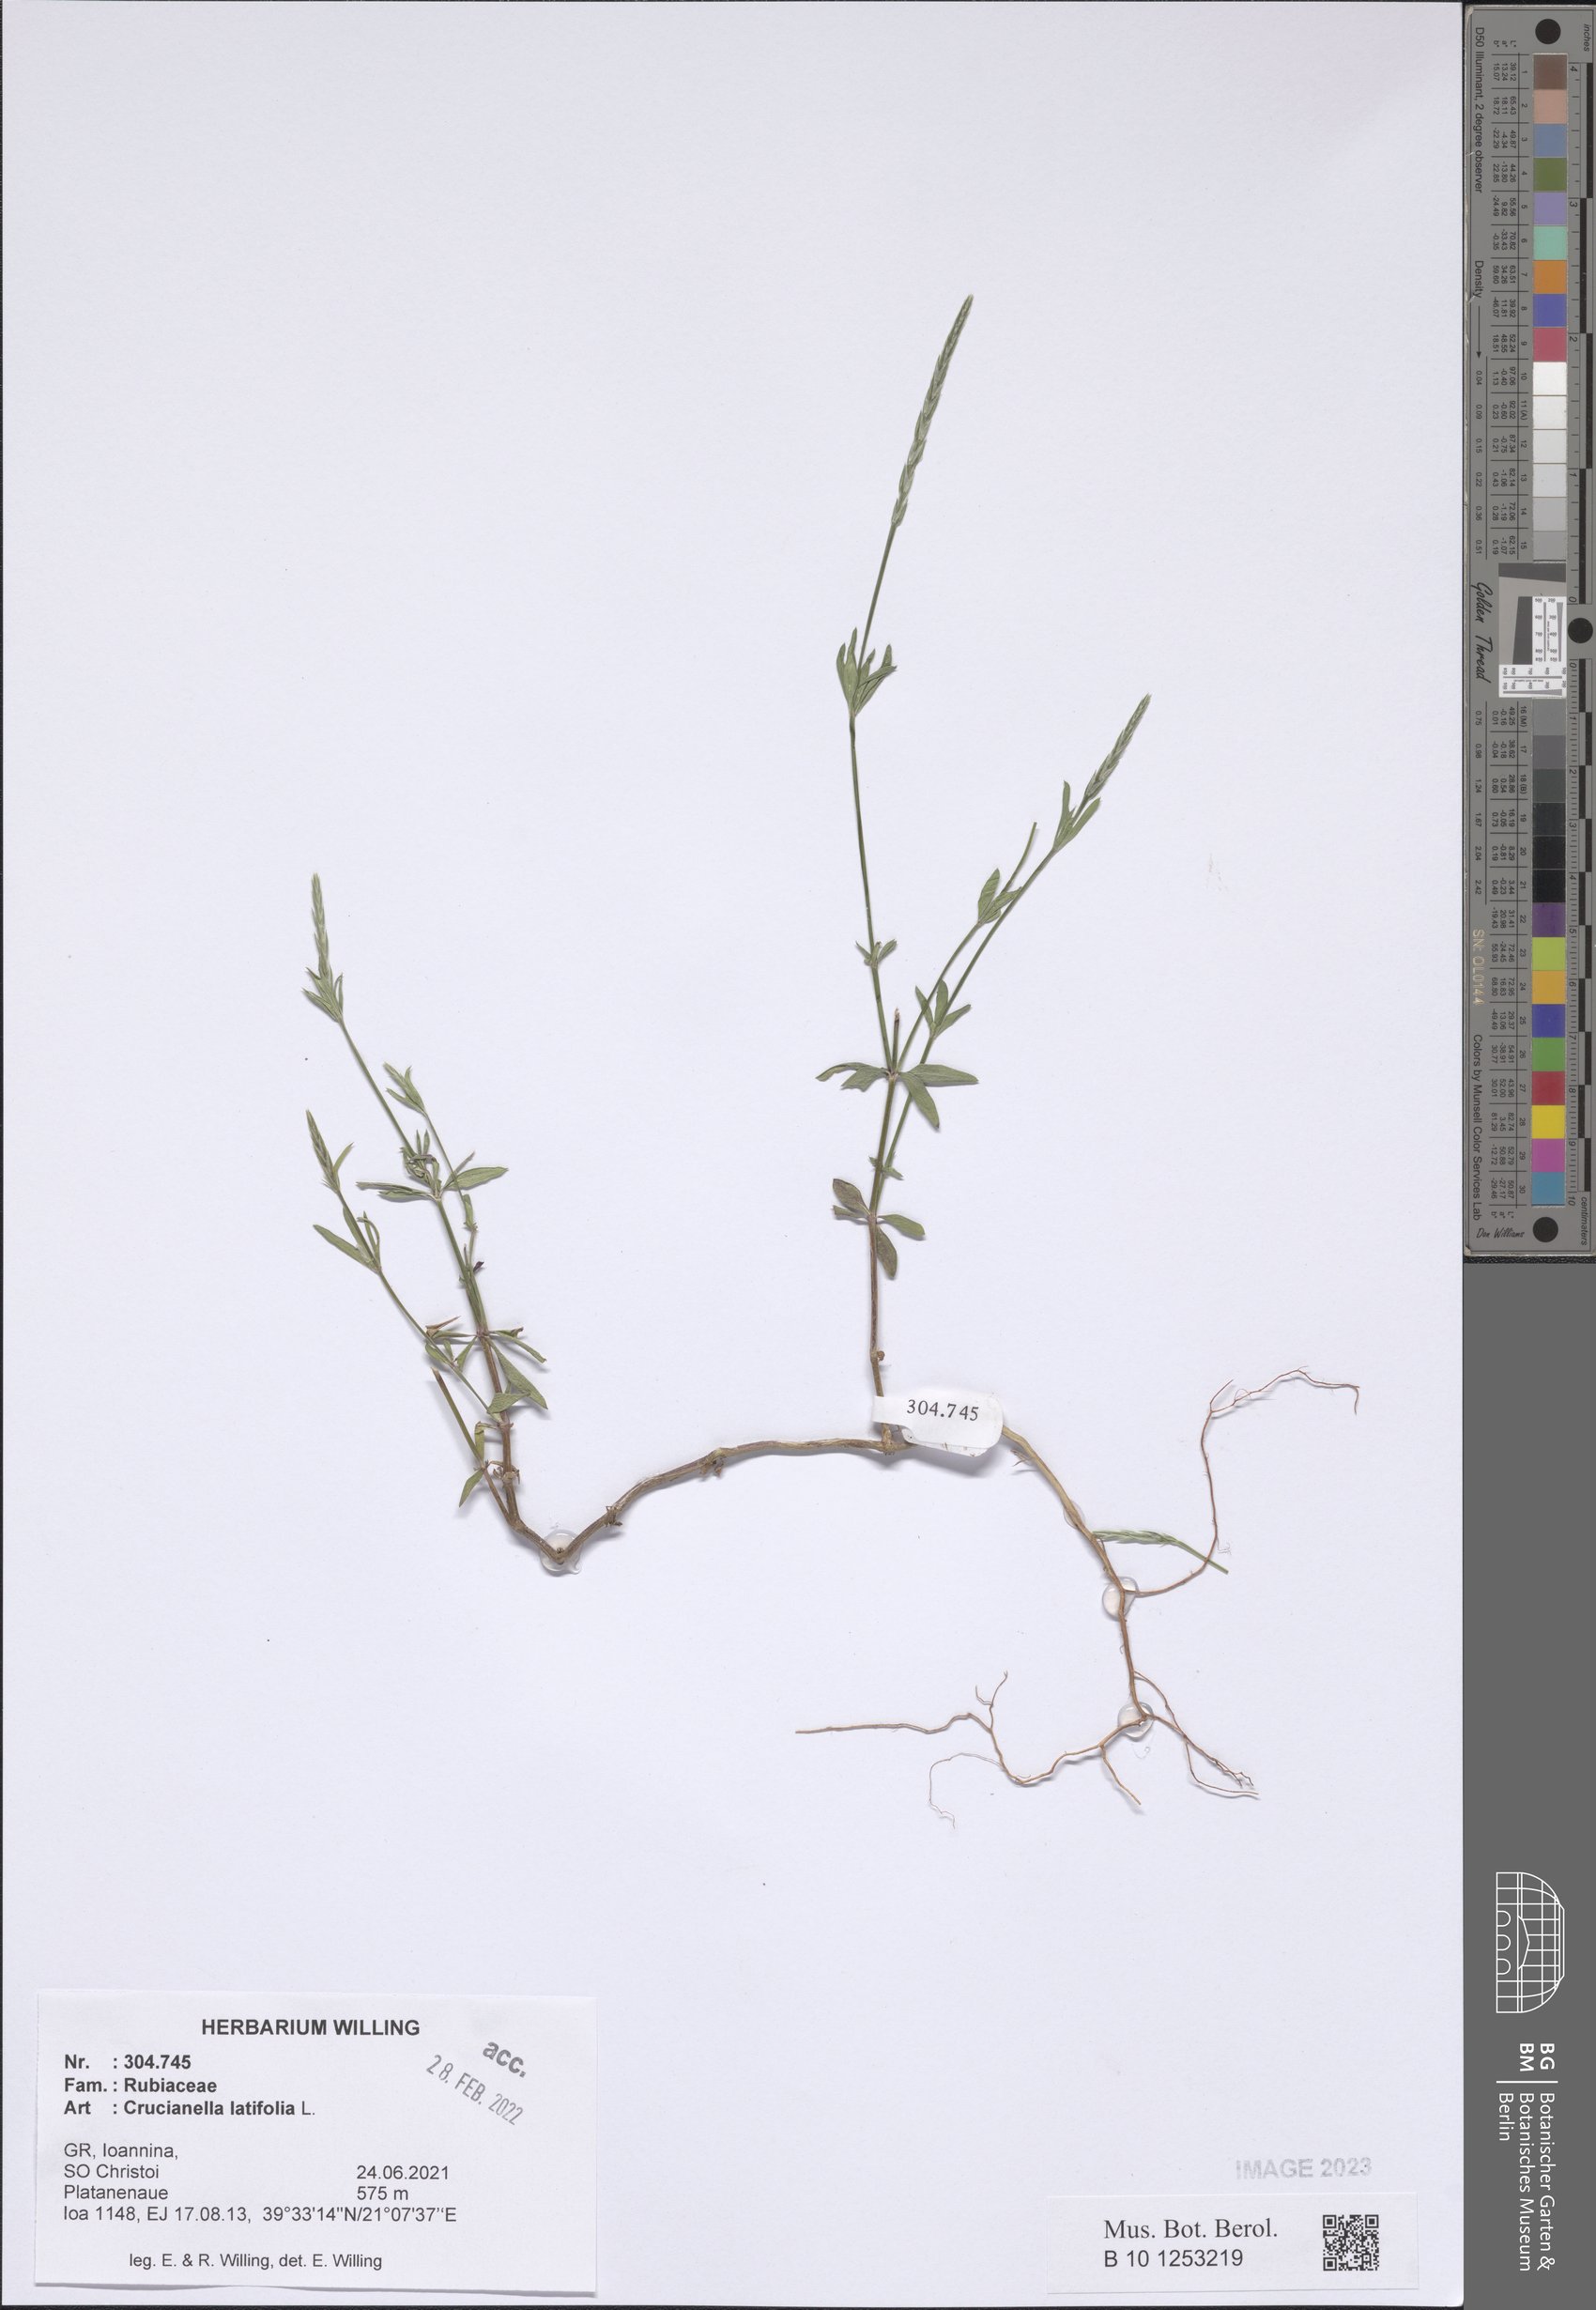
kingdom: Plantae
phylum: Tracheophyta
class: Magnoliopsida
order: Gentianales
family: Rubiaceae
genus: Crucianella
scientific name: Crucianella latifolia
